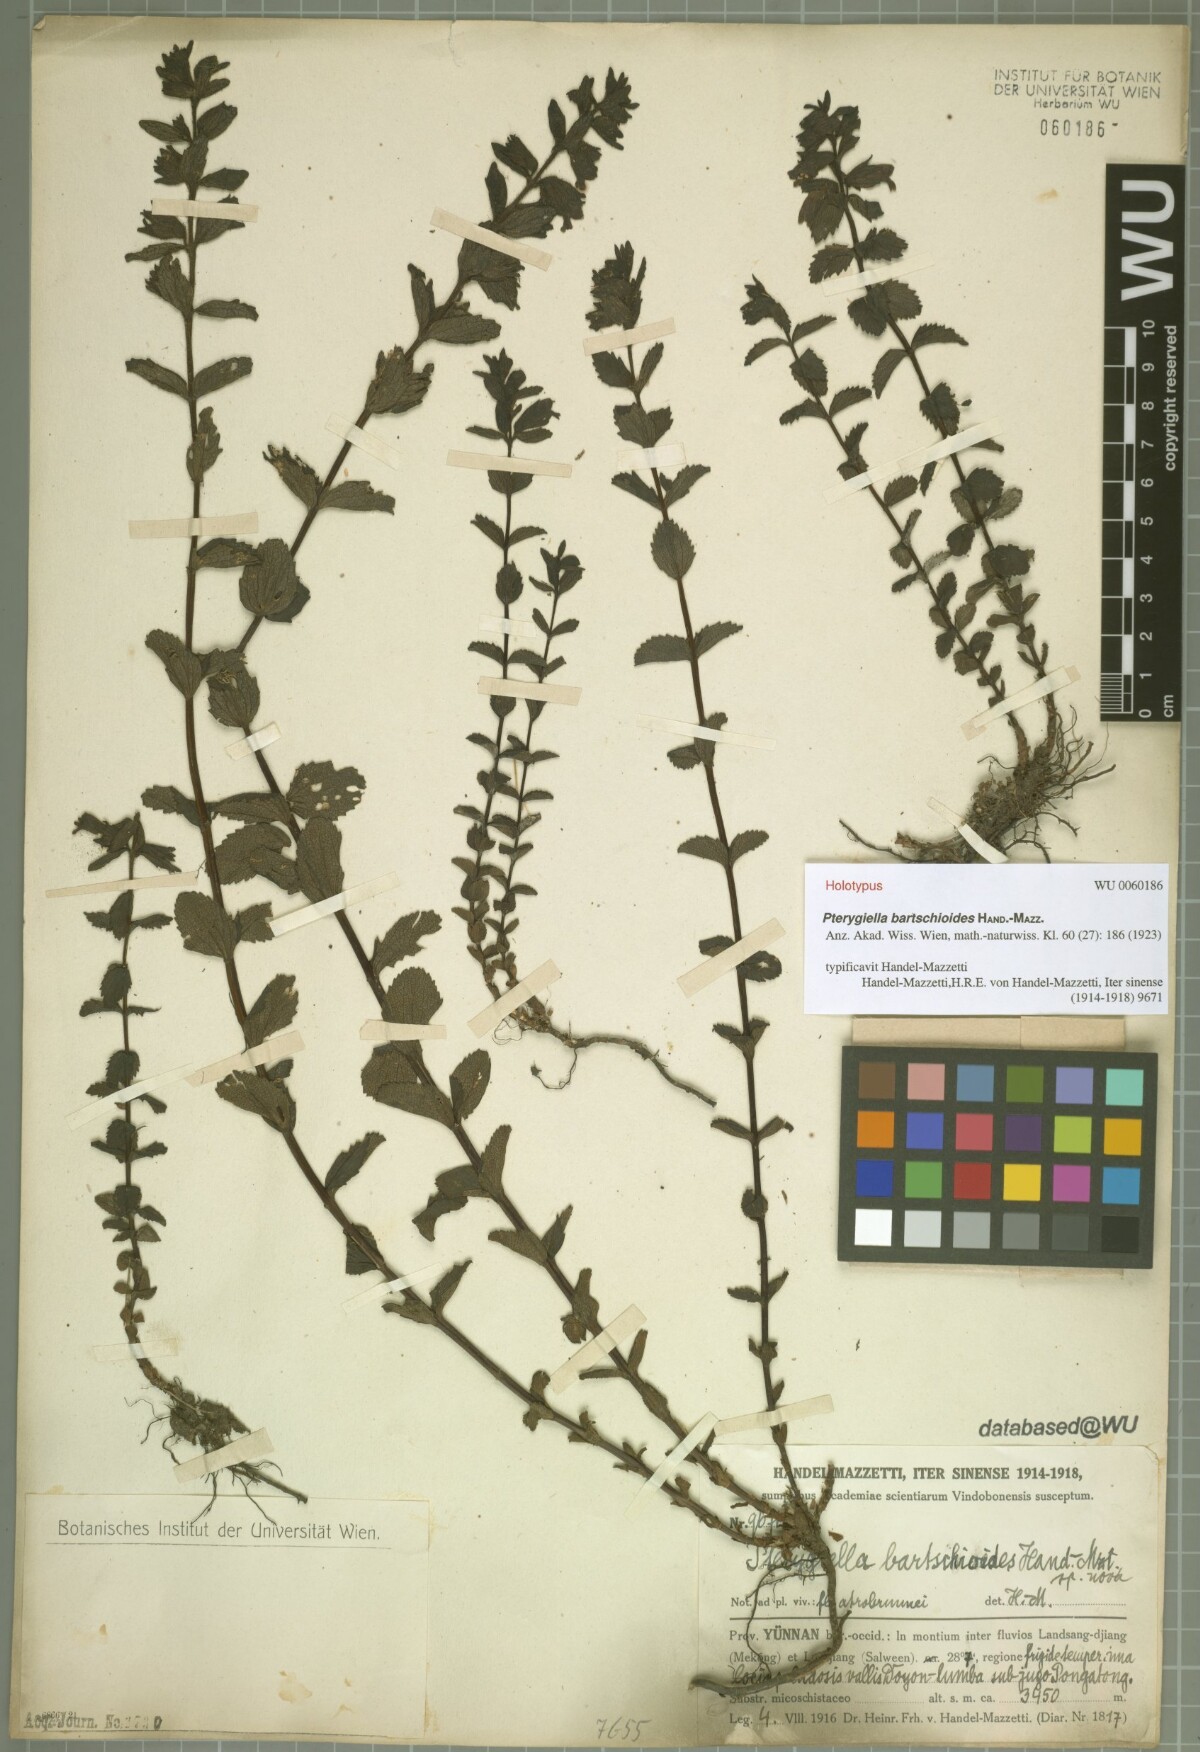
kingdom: Plantae
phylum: Tracheophyta
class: Magnoliopsida
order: Lamiales
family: Orobanchaceae
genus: Xizangia
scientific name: Xizangia bartsioides
